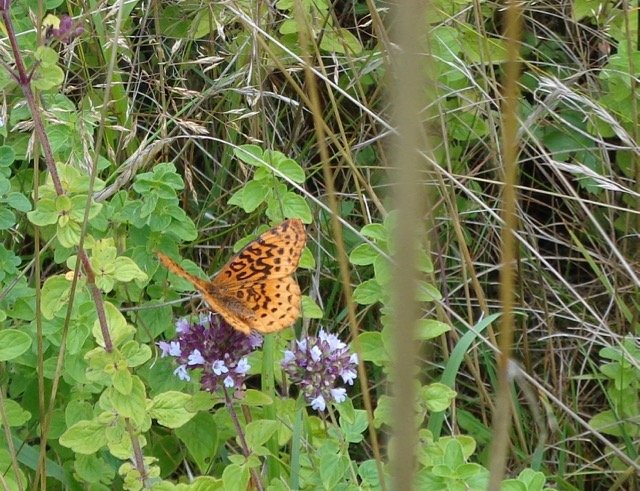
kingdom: Animalia
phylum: Arthropoda
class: Insecta
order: Lepidoptera
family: Nymphalidae
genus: Clossiana
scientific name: Clossiana toddi
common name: Meadow Fritillary
